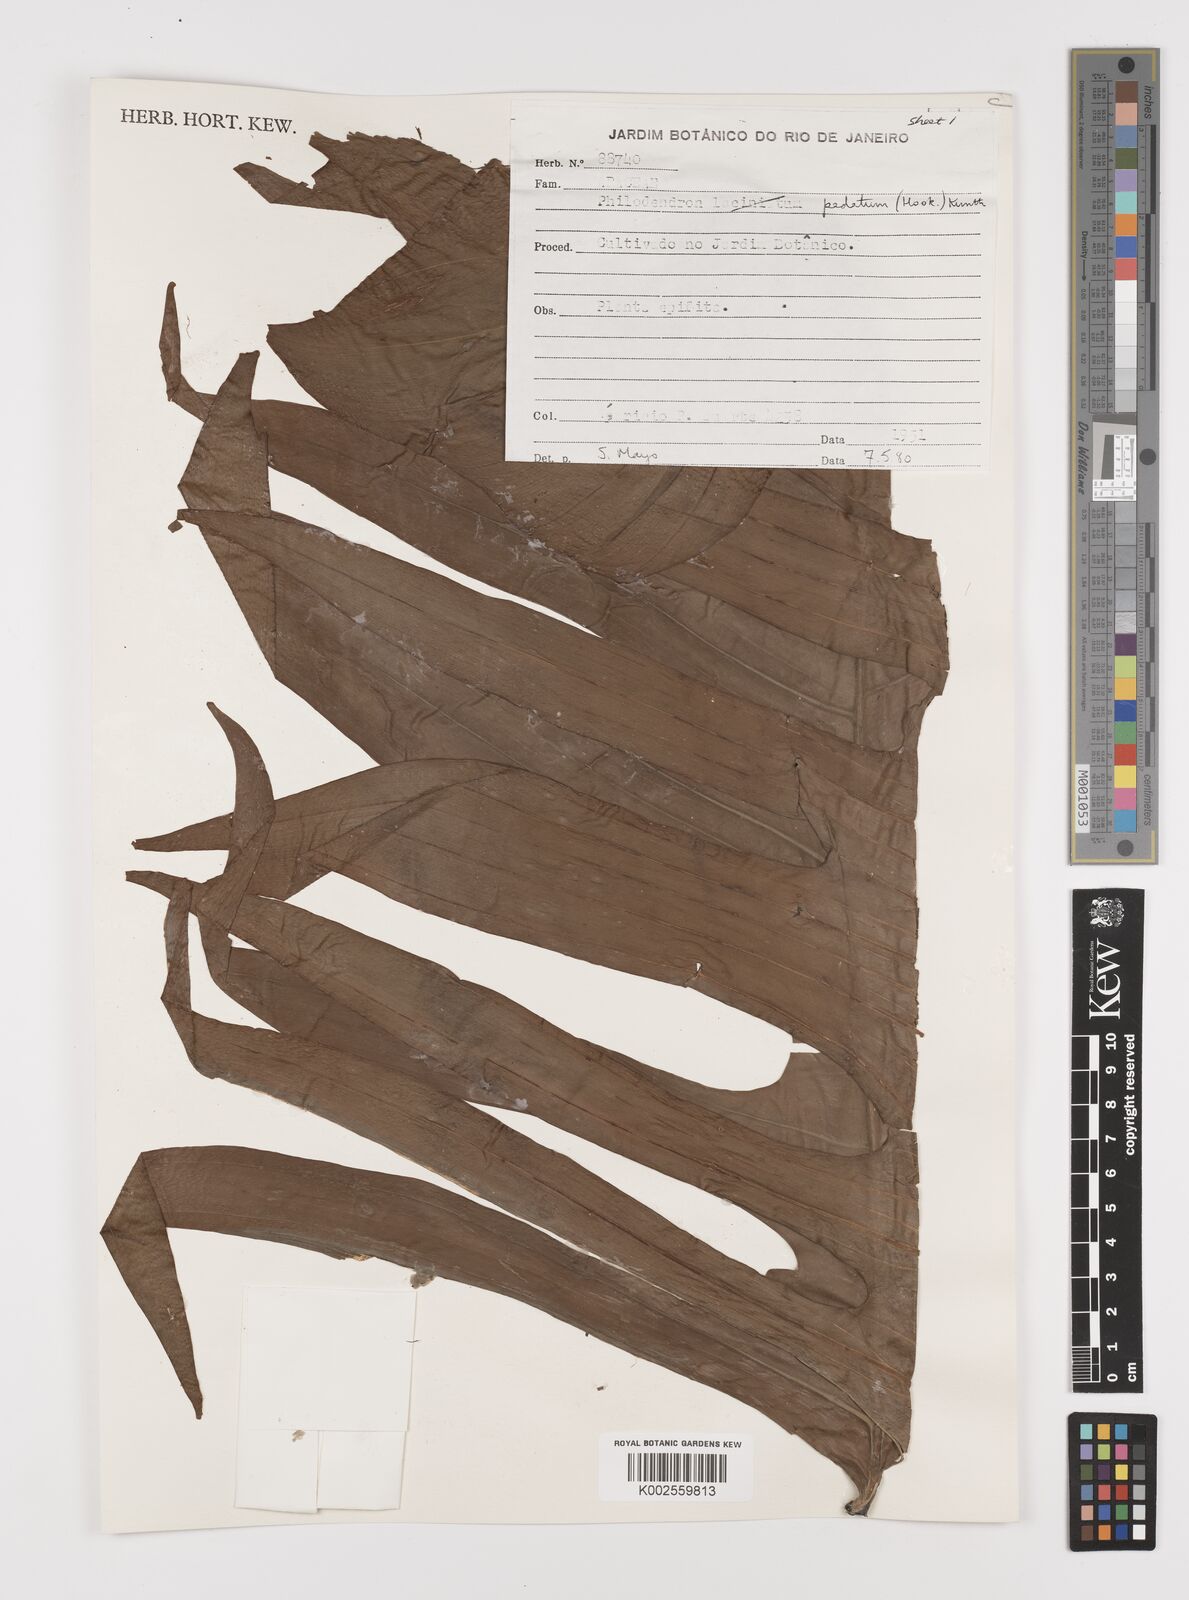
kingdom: Plantae
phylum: Tracheophyta
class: Liliopsida
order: Alismatales
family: Araceae
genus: Philodendron
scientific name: Philodendron pedatum
